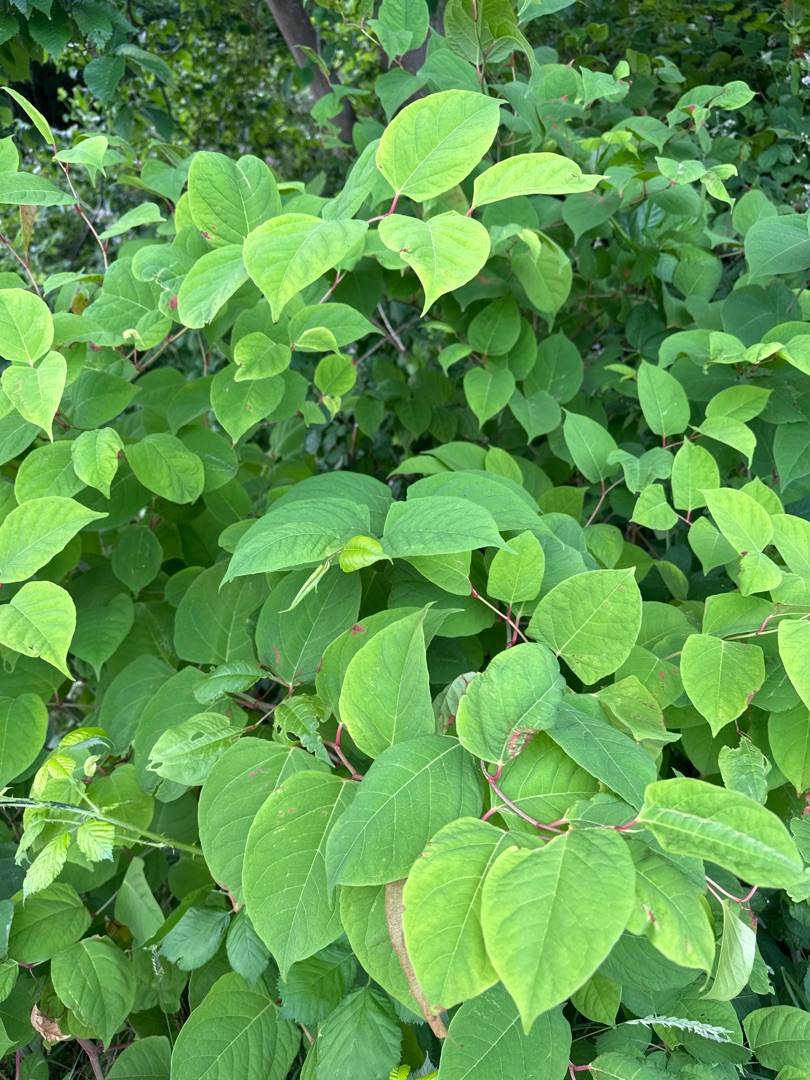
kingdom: Plantae
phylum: Tracheophyta
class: Magnoliopsida
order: Caryophyllales
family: Polygonaceae
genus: Reynoutria
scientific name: Reynoutria japonica
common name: Japan-pileurt
